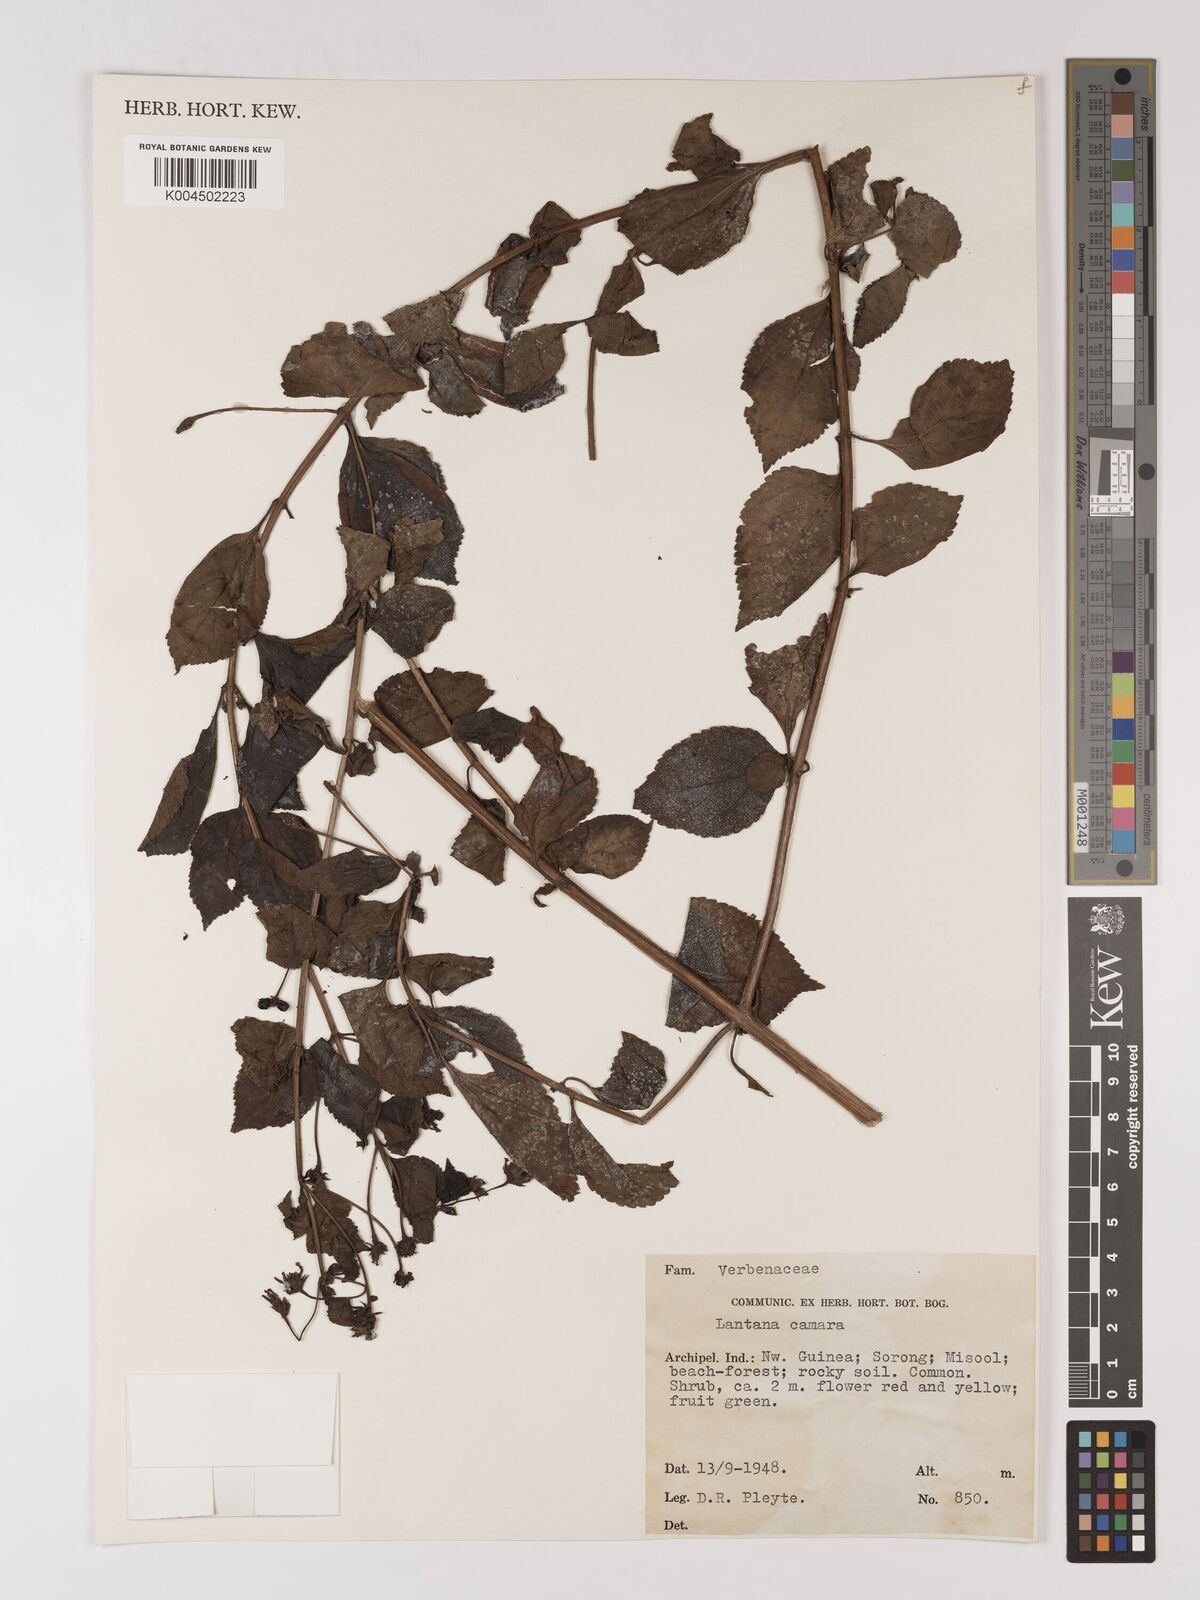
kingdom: Plantae
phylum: Tracheophyta
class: Magnoliopsida
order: Lamiales
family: Verbenaceae
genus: Lantana
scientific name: Lantana camara
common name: Lantana
